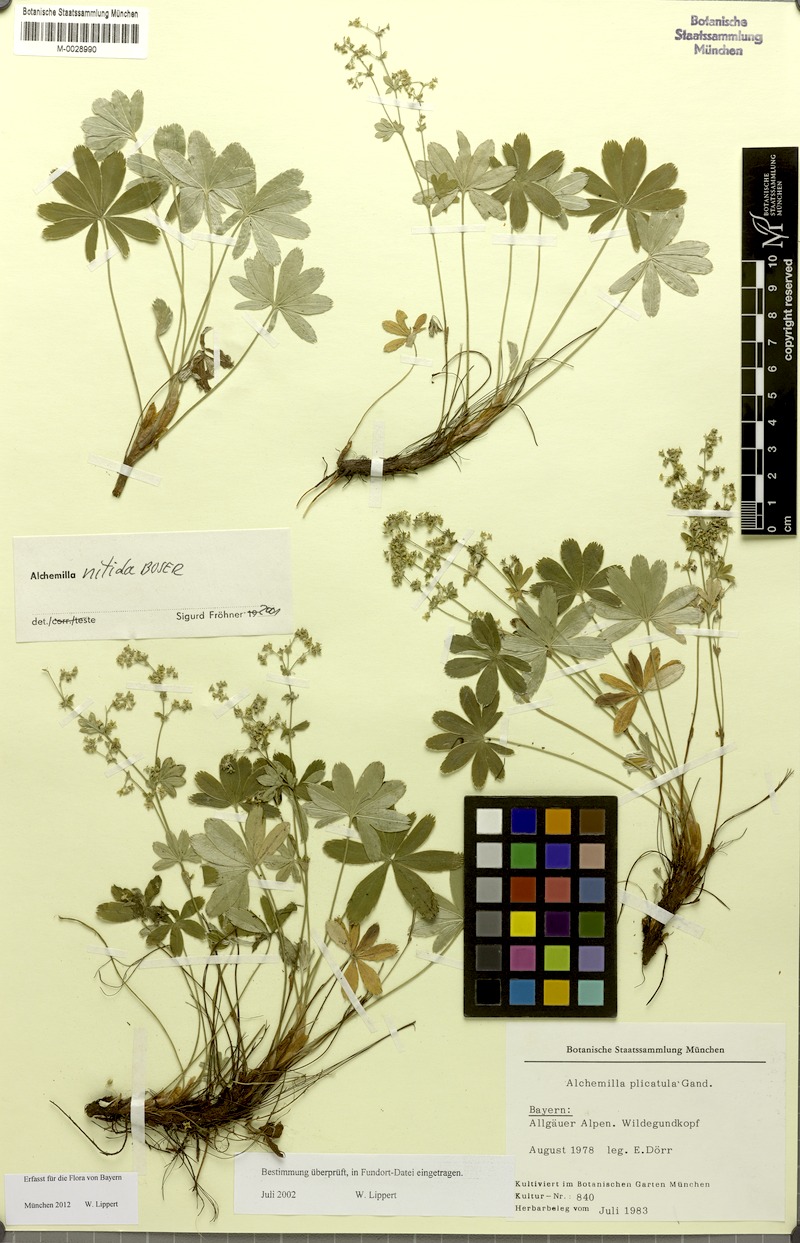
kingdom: Plantae
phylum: Tracheophyta
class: Magnoliopsida
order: Rosales
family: Rosaceae
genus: Alchemilla
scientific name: Alchemilla nitida
